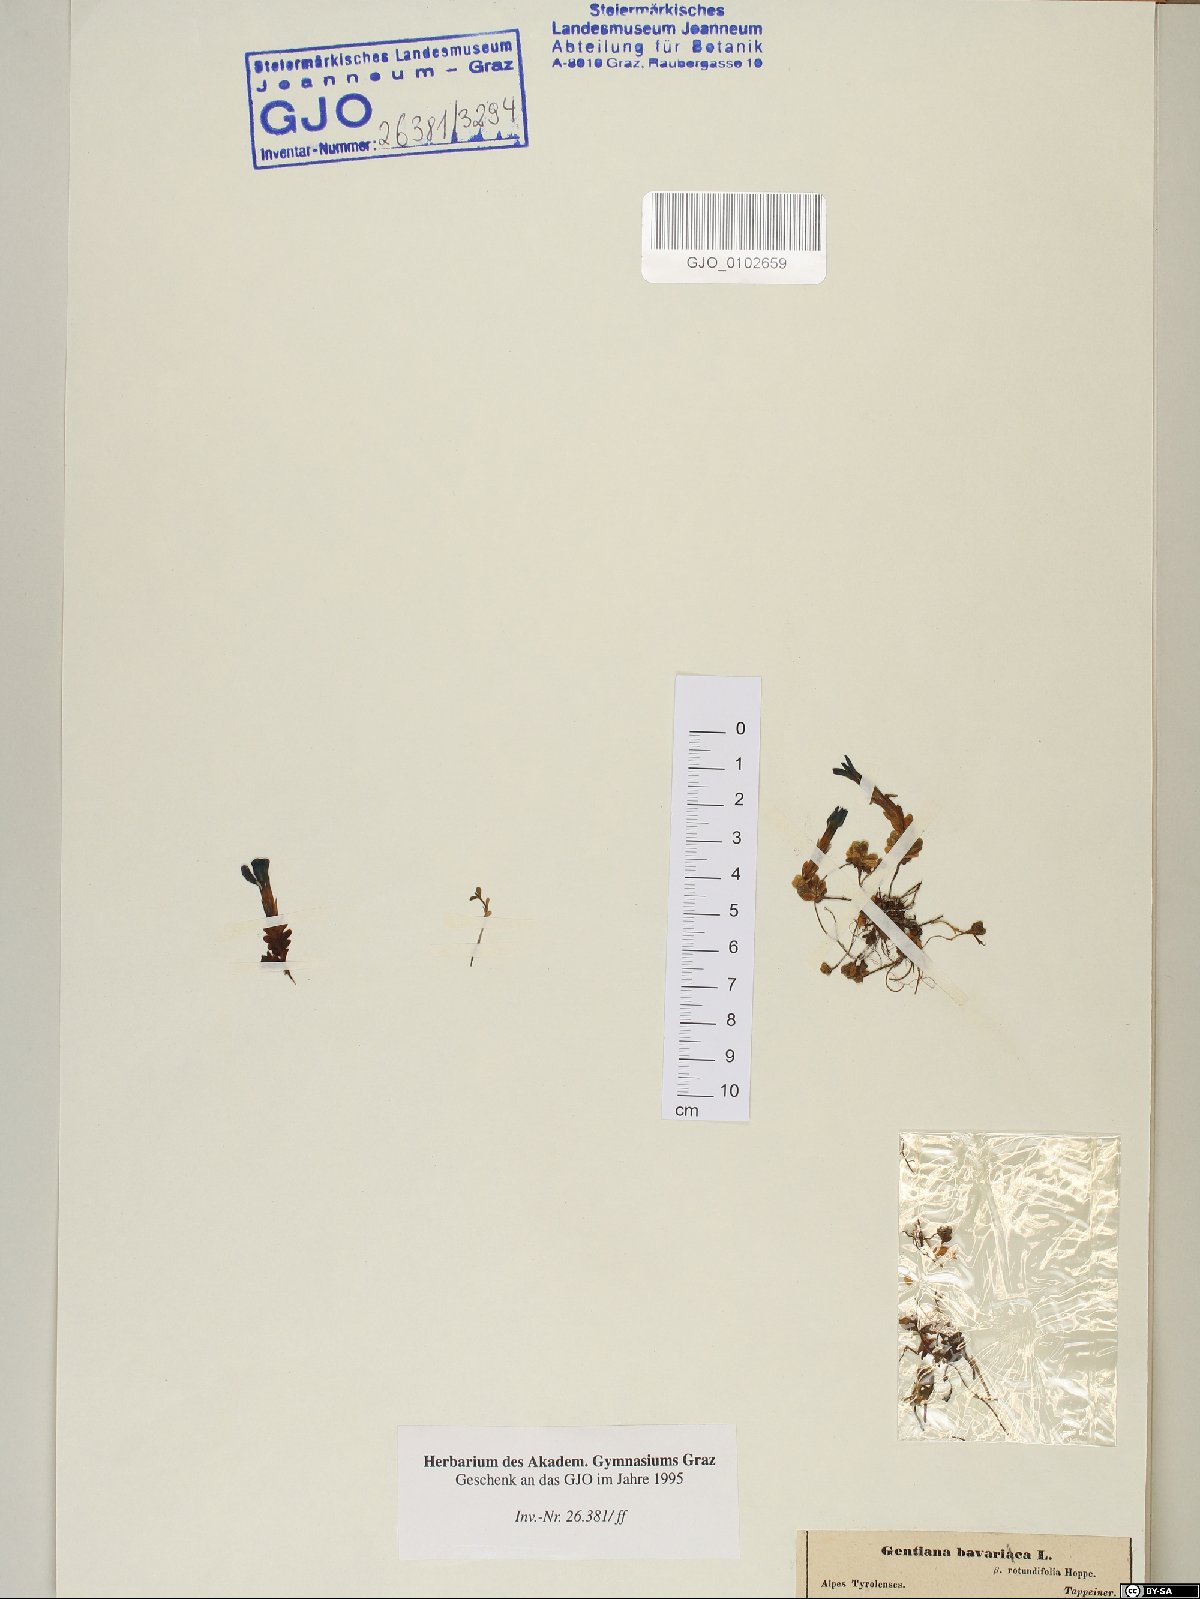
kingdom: Plantae
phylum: Tracheophyta
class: Magnoliopsida
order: Gentianales
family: Gentianaceae
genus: Gentiana
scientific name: Gentiana bavarica
